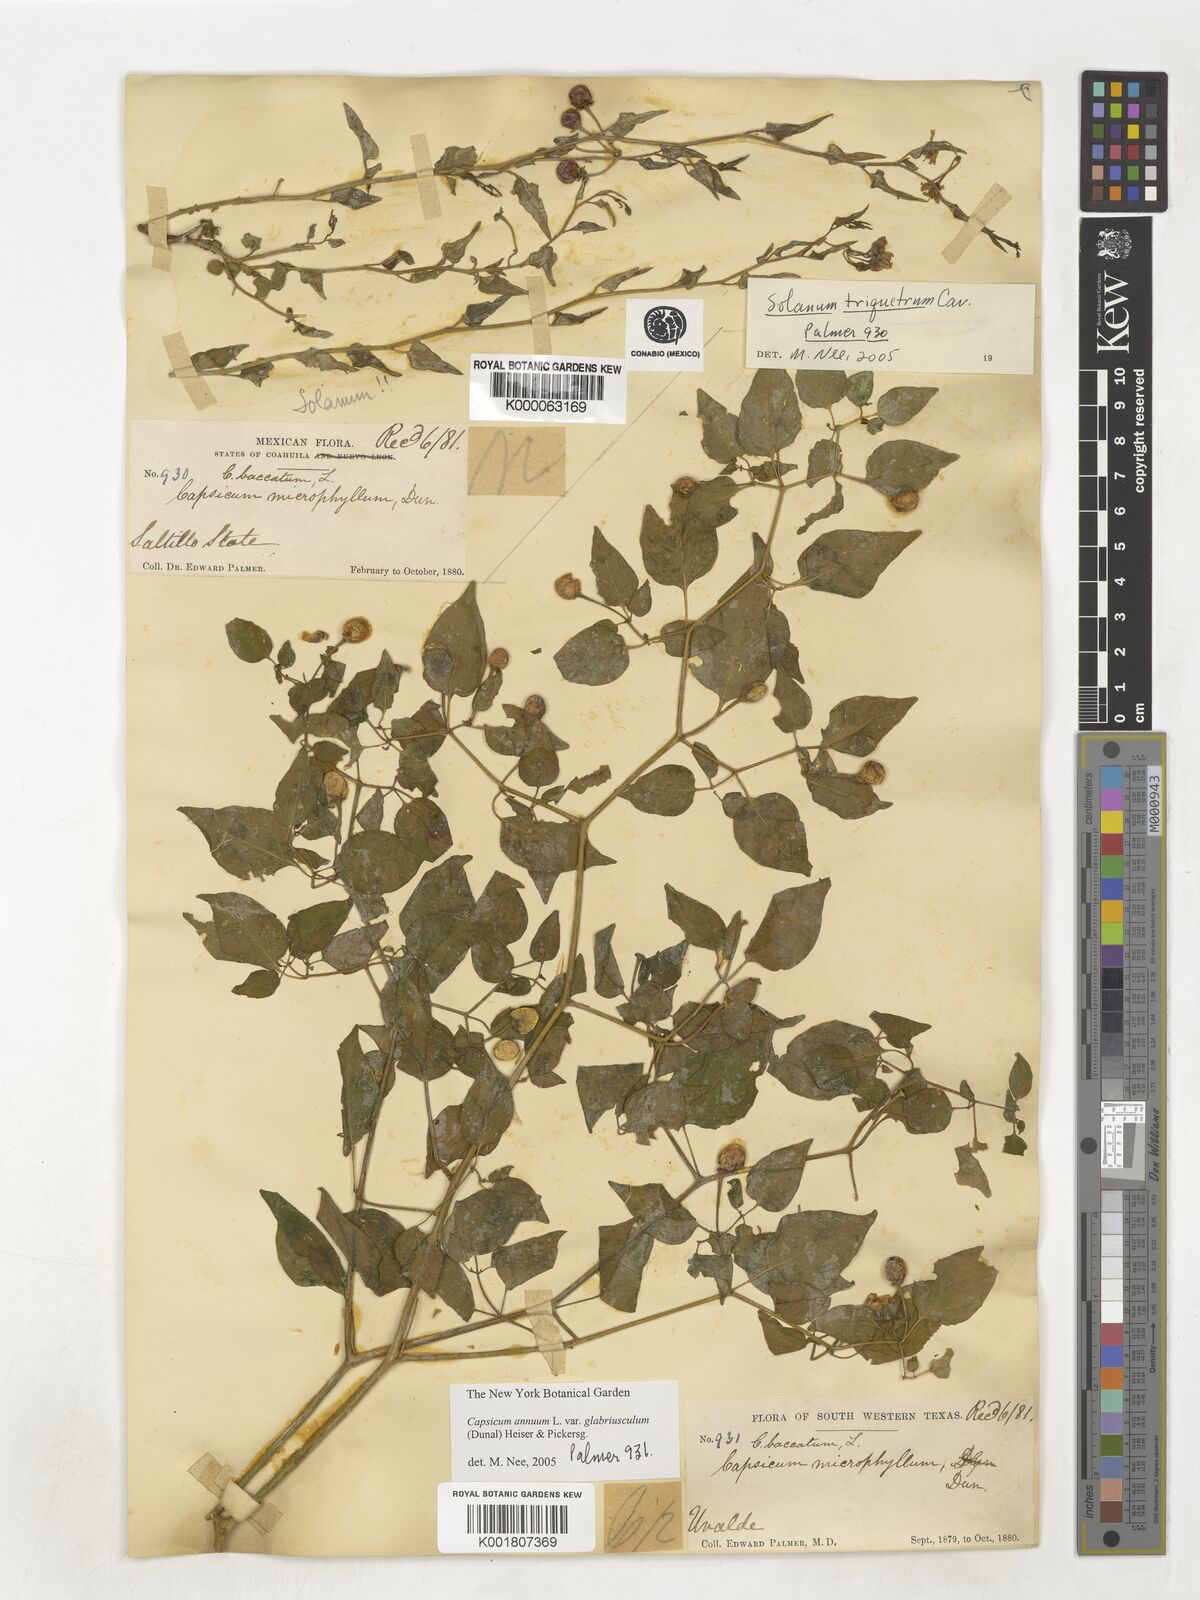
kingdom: Plantae
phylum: Tracheophyta
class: Magnoliopsida
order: Solanales
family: Solanaceae
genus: Capsicum
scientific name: Capsicum baccatum
